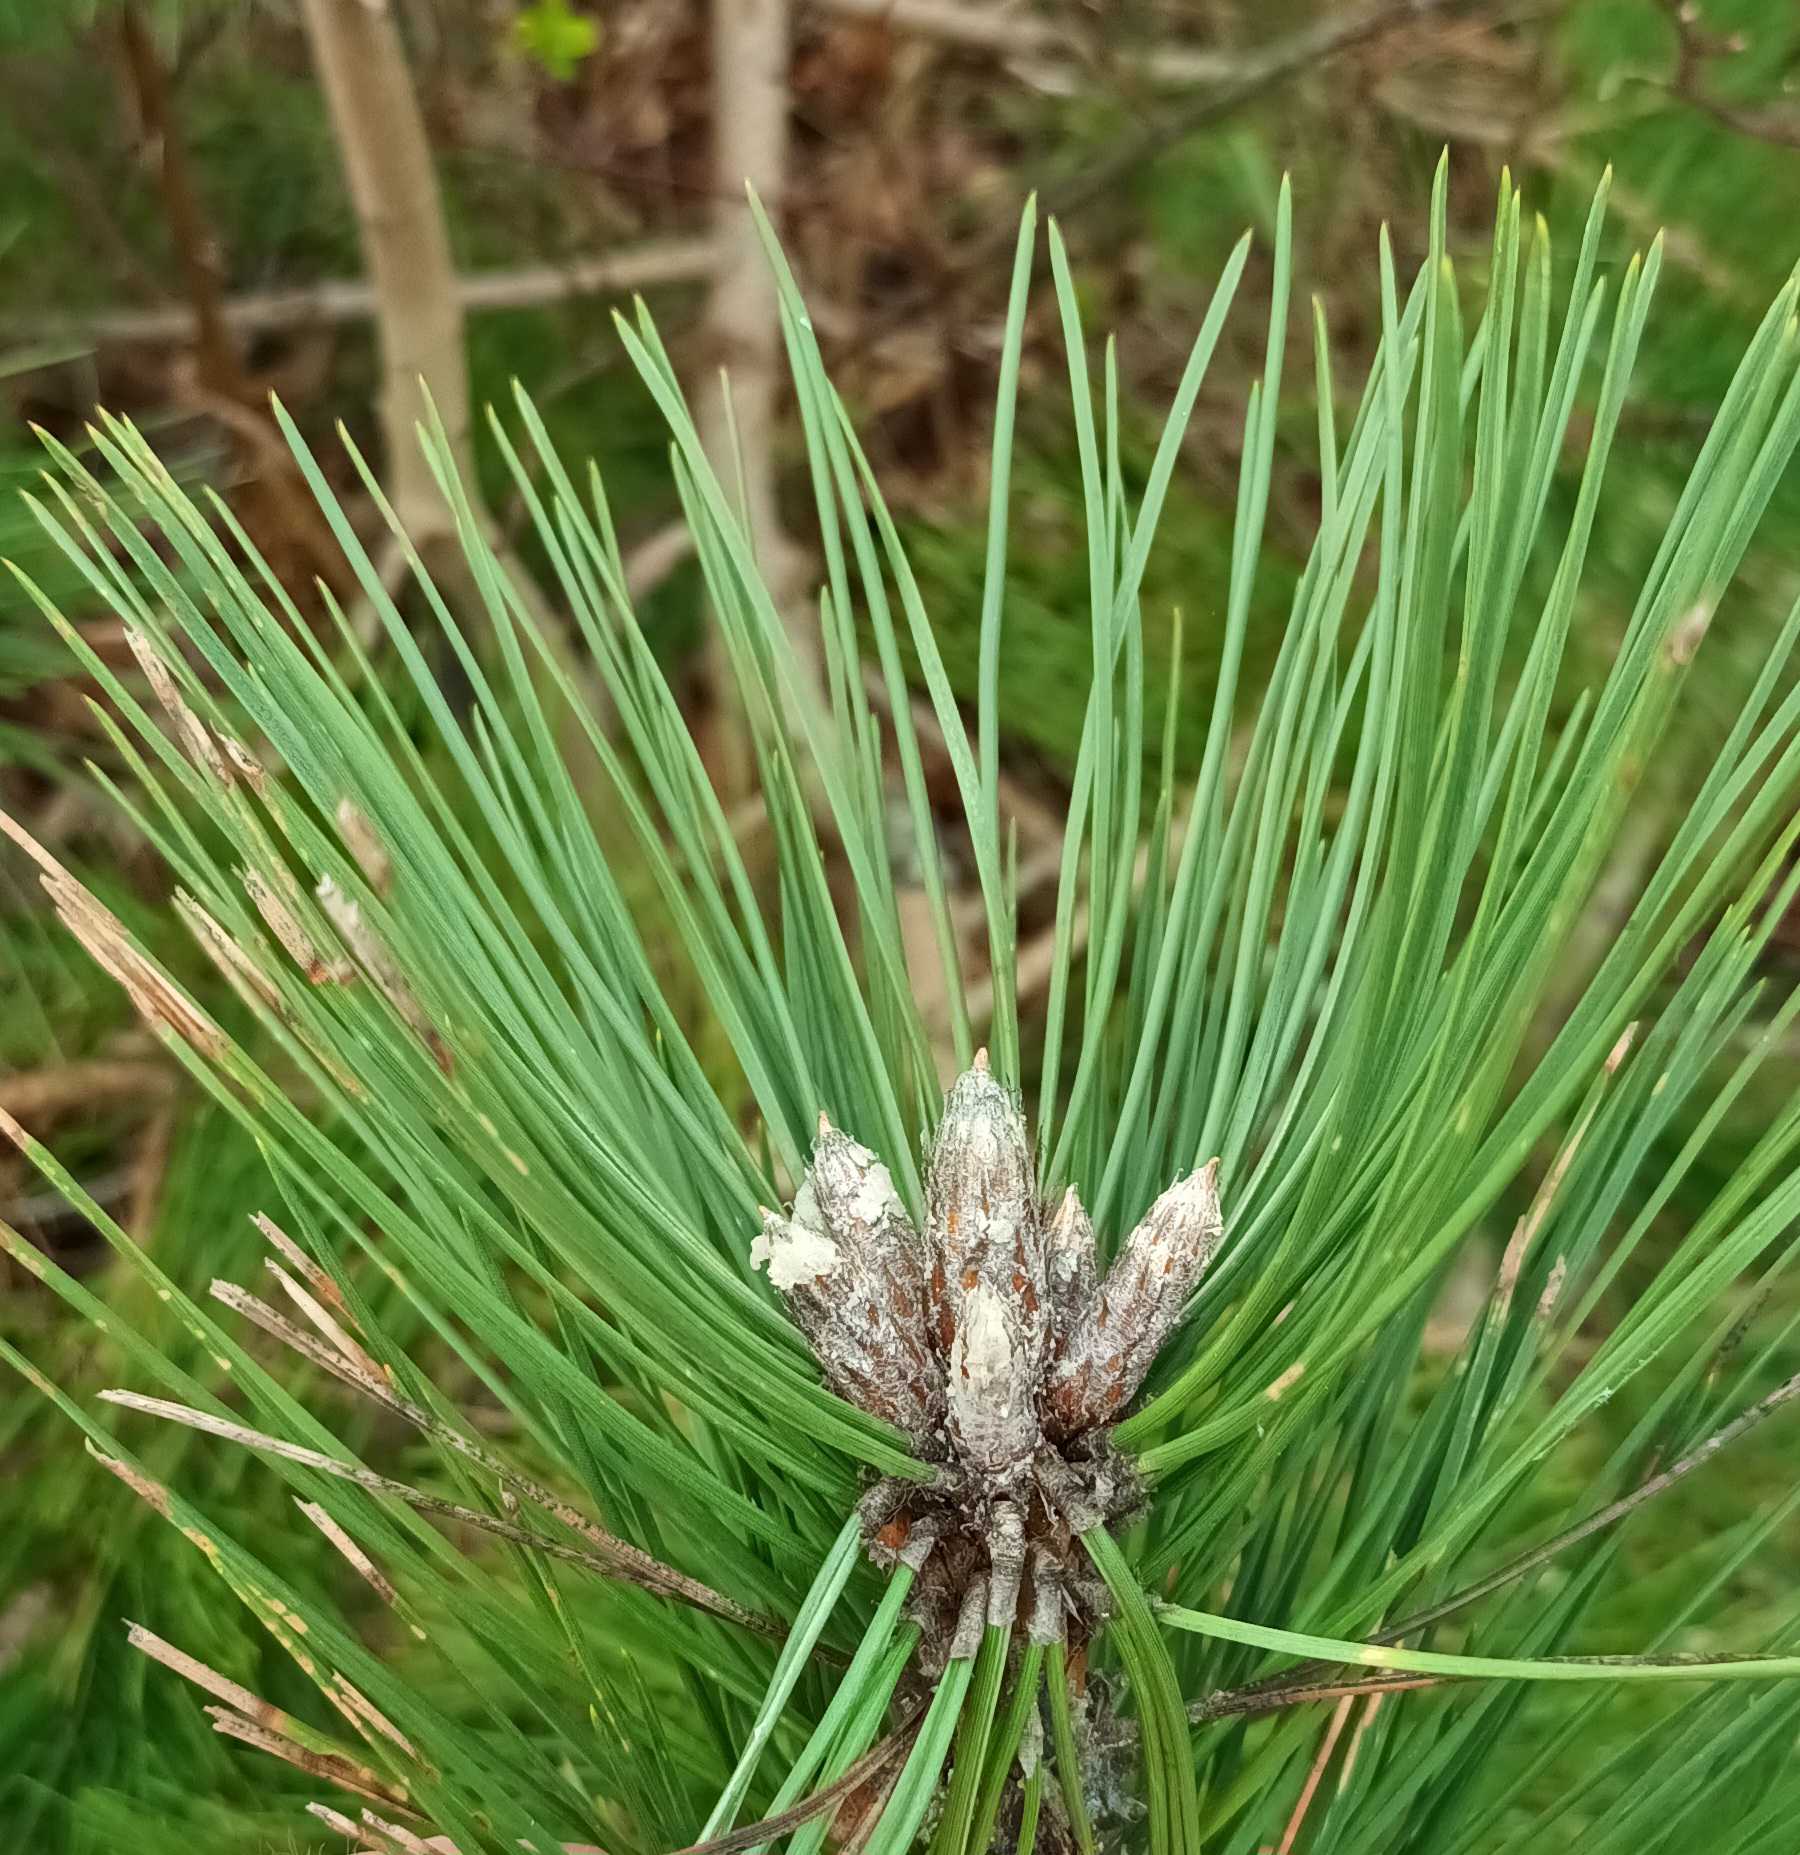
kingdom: Plantae
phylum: Tracheophyta
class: Pinopsida
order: Pinales
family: Pinaceae
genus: Pinus
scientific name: Pinus nigra
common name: Østrigsk fyr
